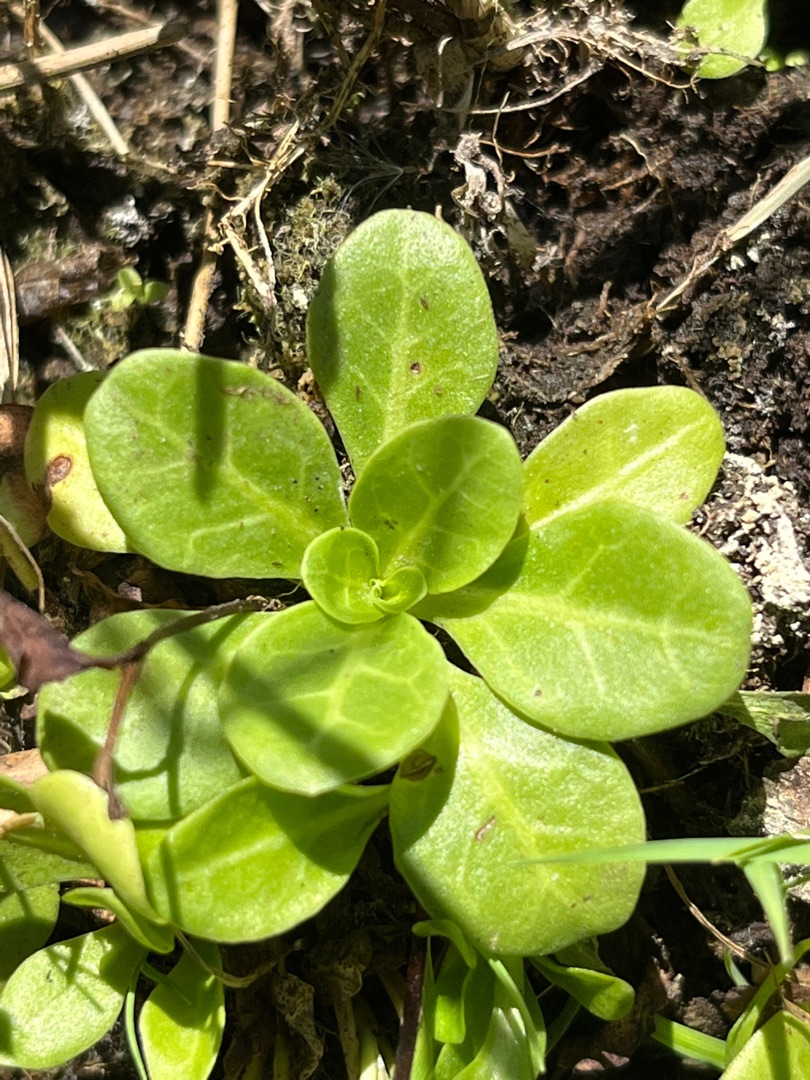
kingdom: Plantae
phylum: Tracheophyta
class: Magnoliopsida
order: Ericales
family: Primulaceae
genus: Samolus
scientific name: Samolus valerandi
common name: Samel
